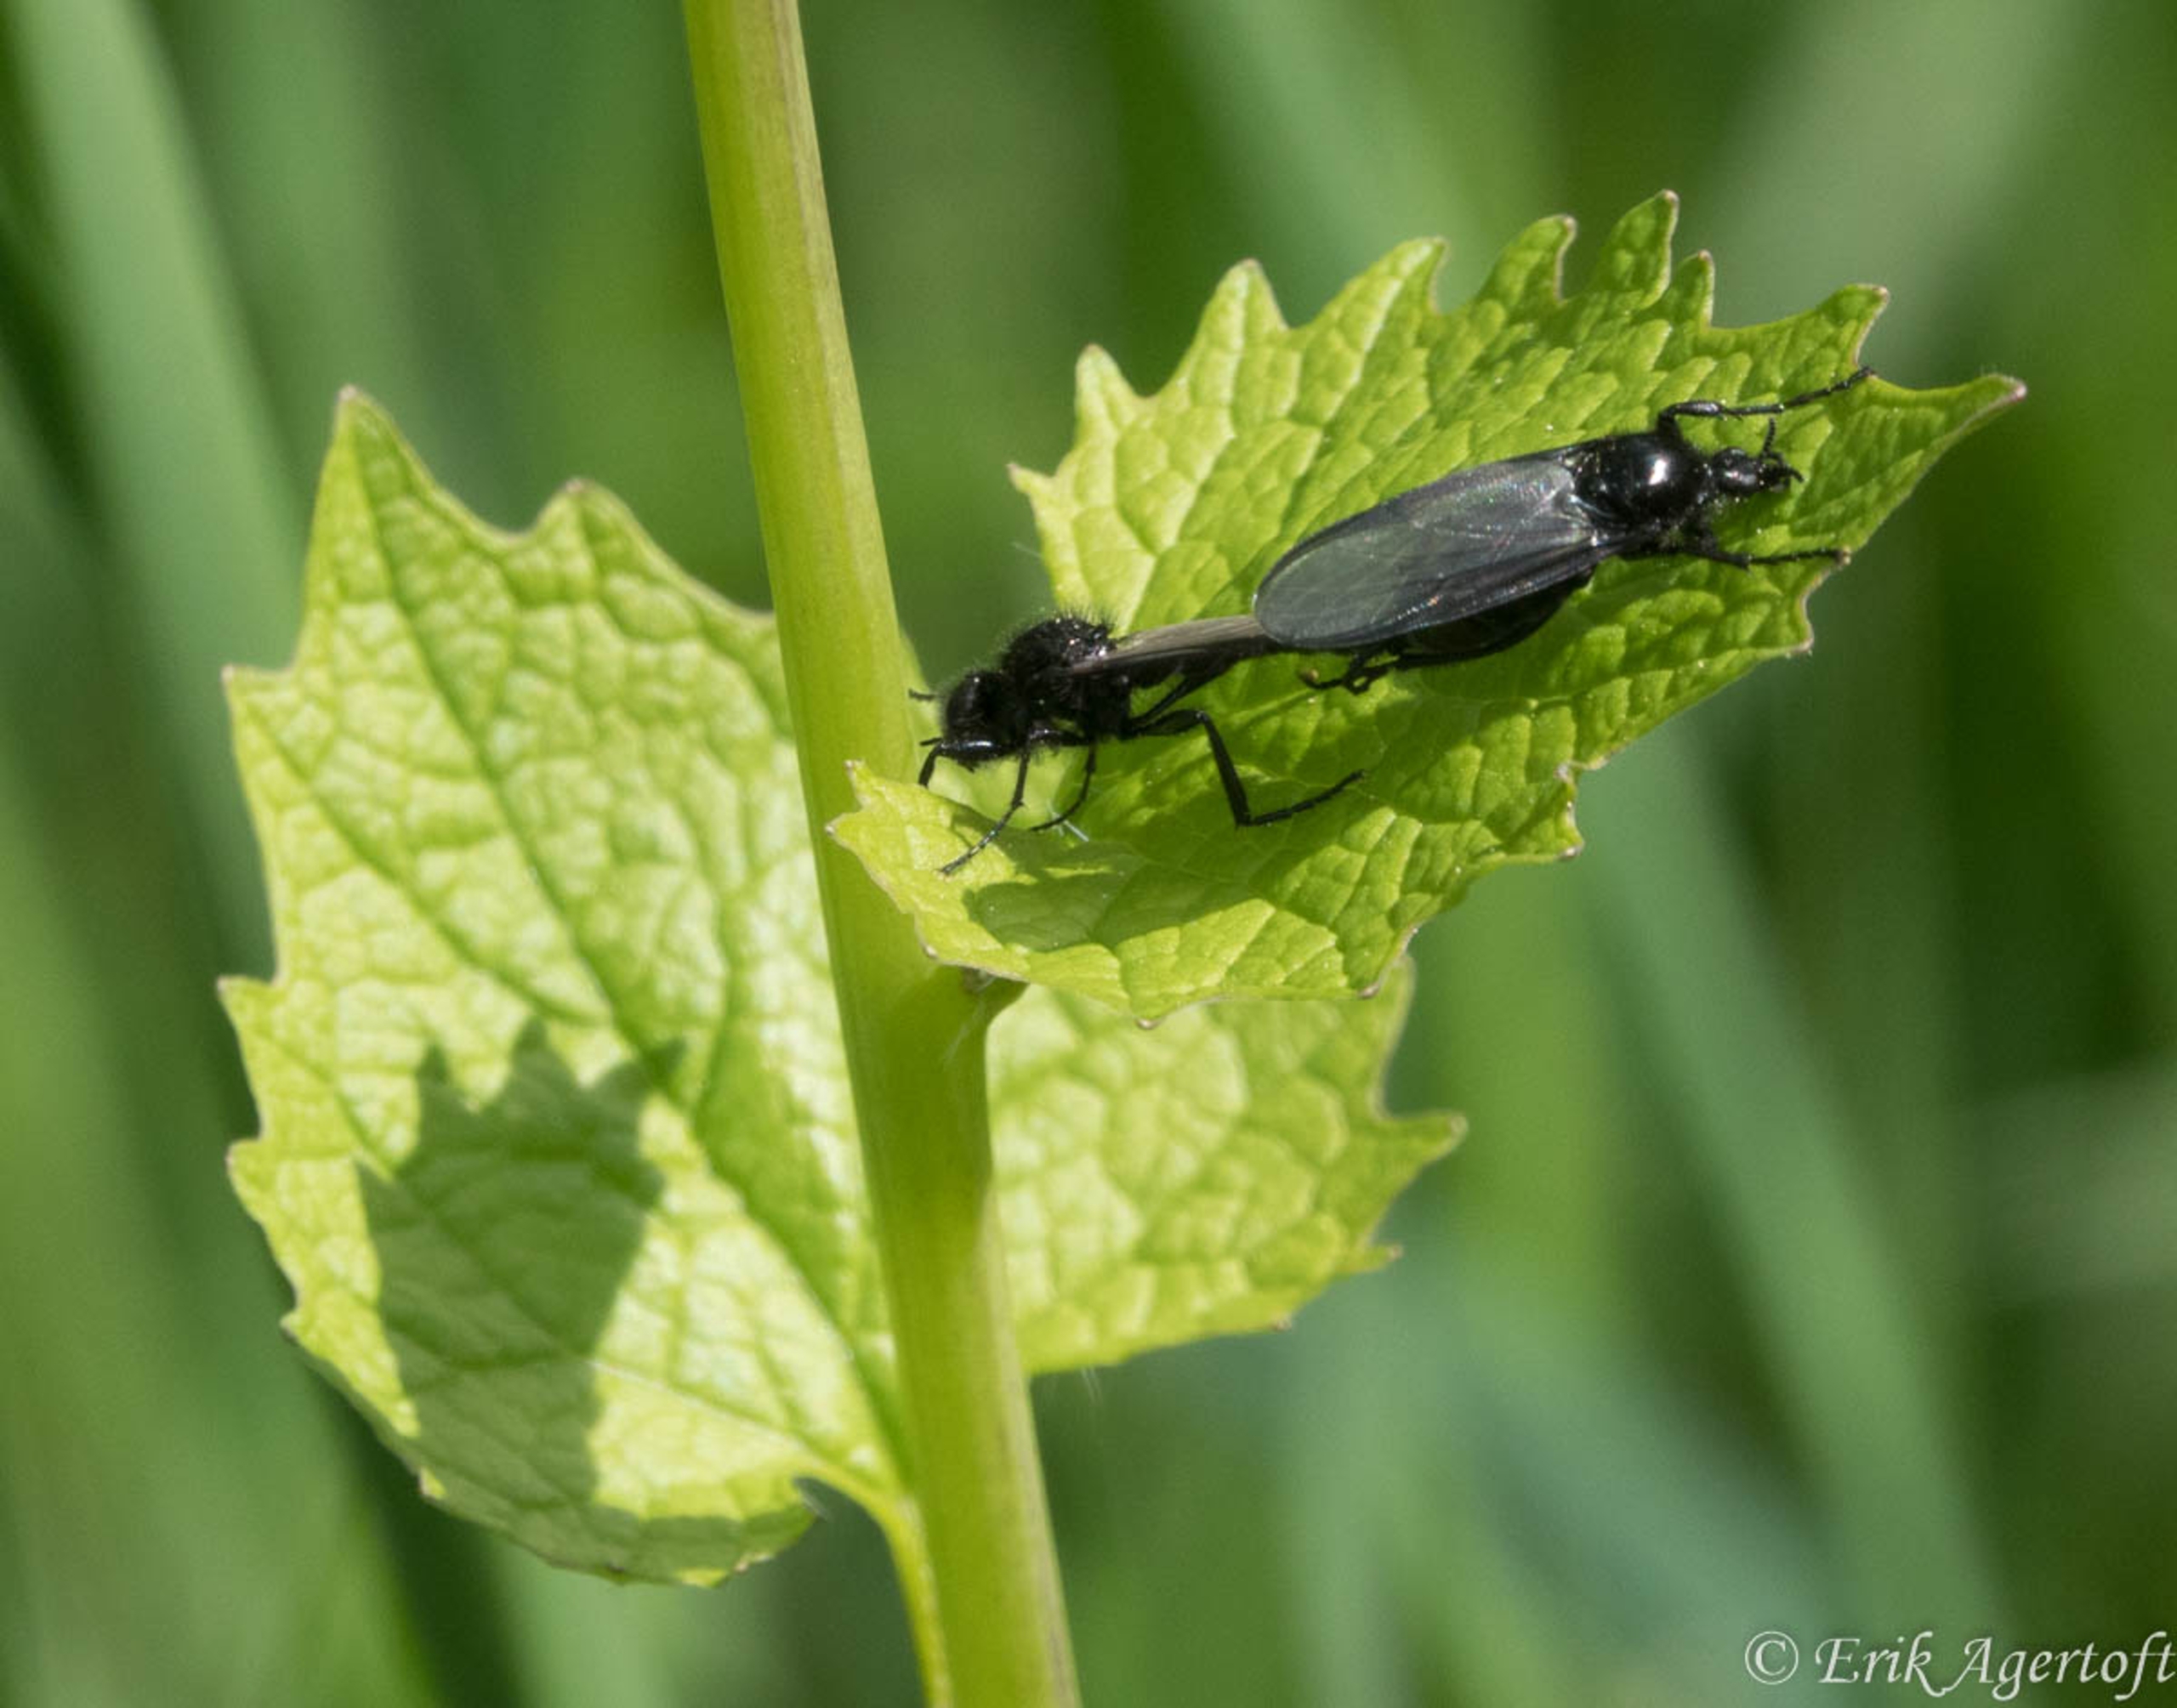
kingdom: Animalia
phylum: Arthropoda
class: Insecta
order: Diptera
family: Bibionidae
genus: Bibio
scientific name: Bibio
